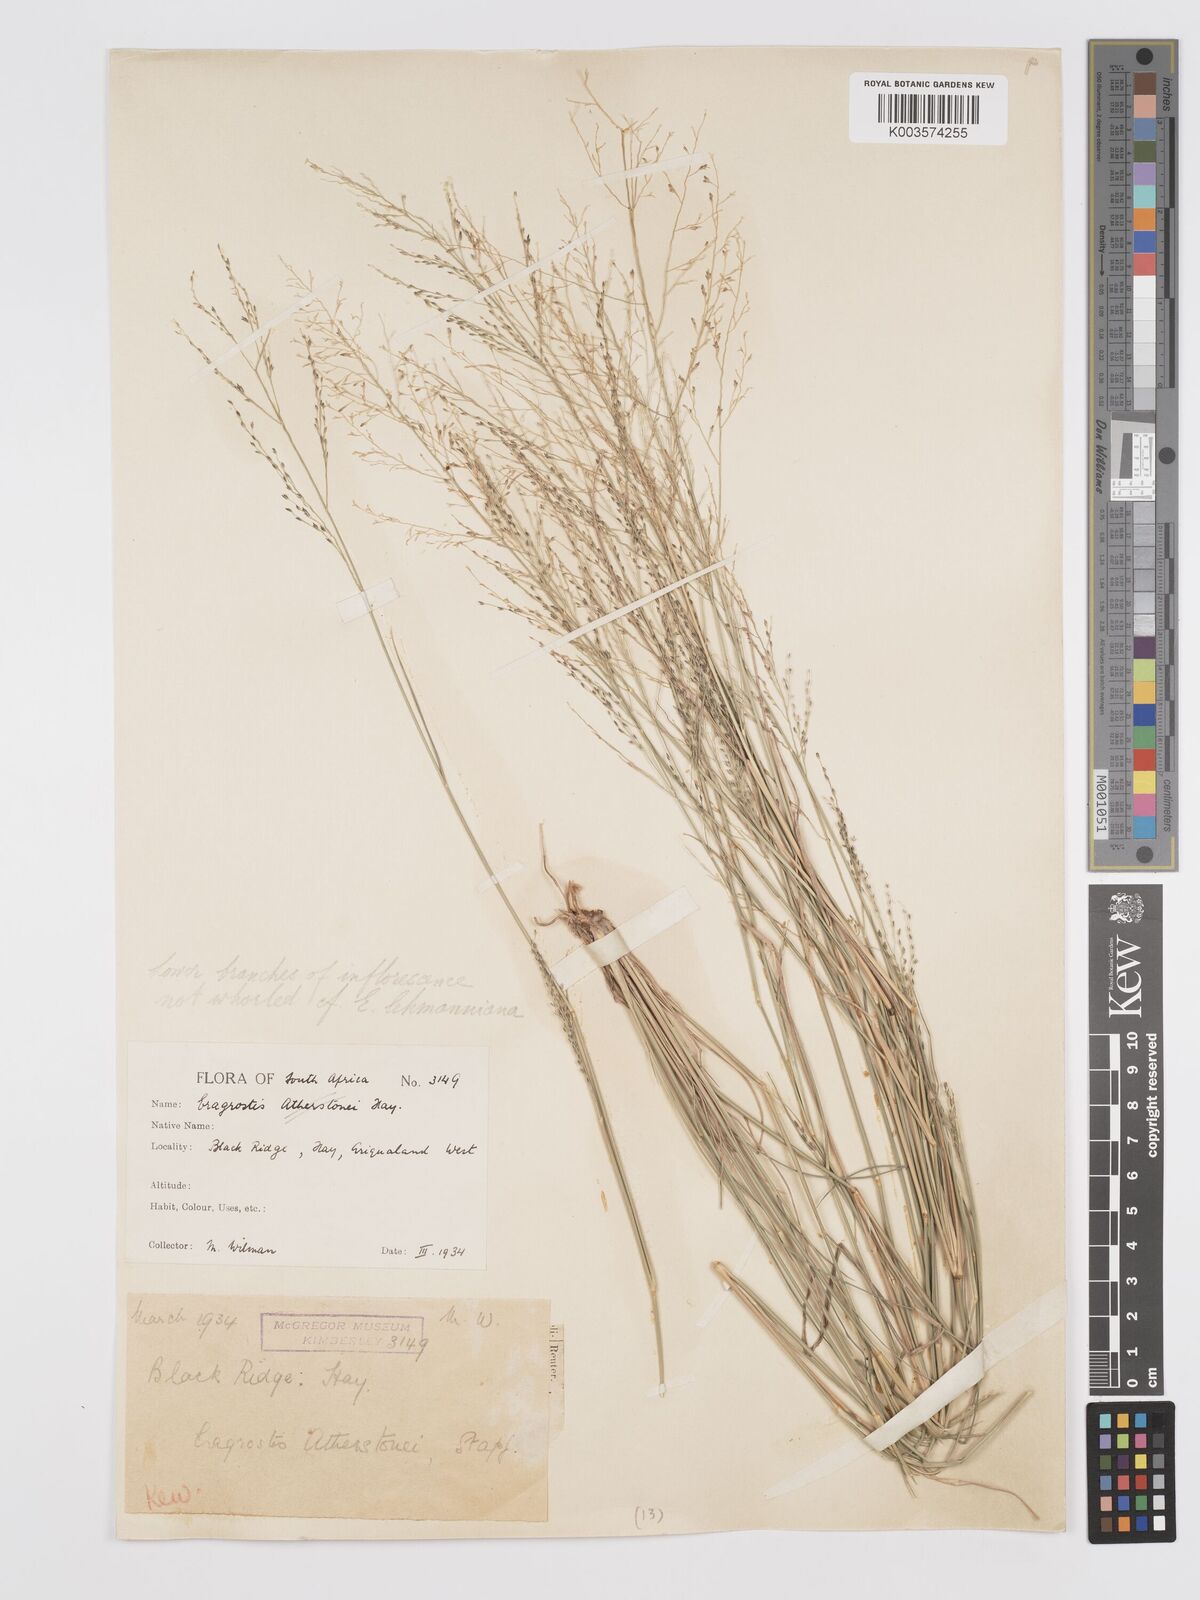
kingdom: Plantae
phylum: Tracheophyta
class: Liliopsida
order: Poales
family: Poaceae
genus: Eragrostis
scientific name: Eragrostis micrantha
